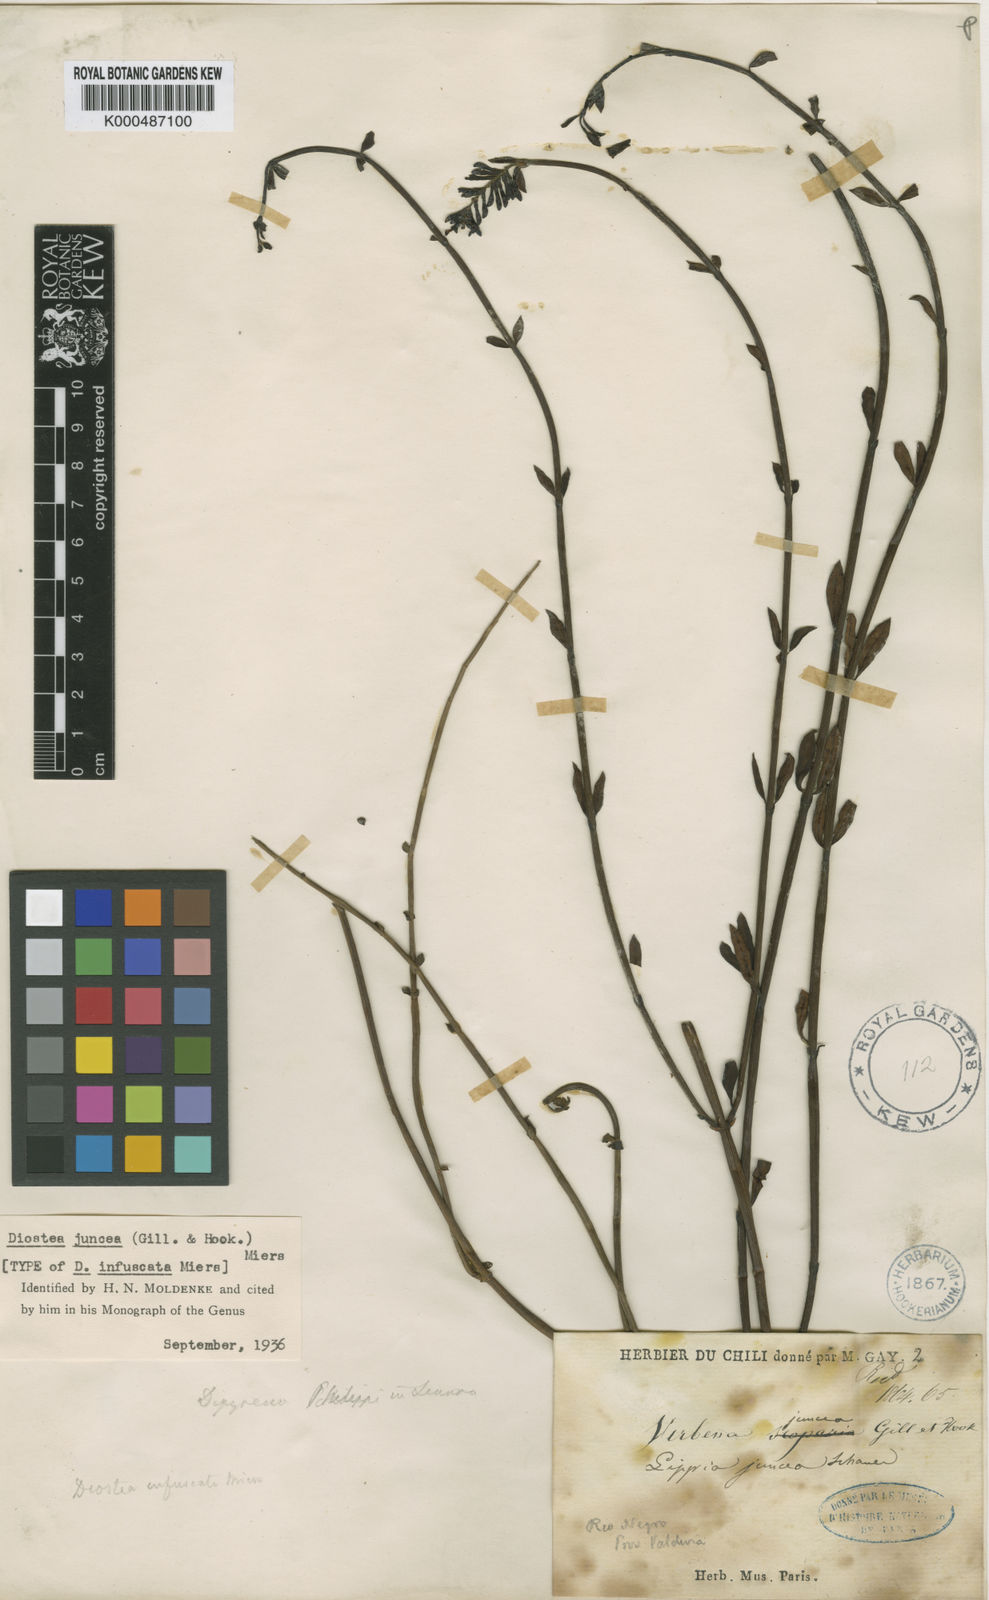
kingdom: Plantae
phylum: Tracheophyta
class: Magnoliopsida
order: Lamiales
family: Verbenaceae
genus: Diostea
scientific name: Diostea juncea
